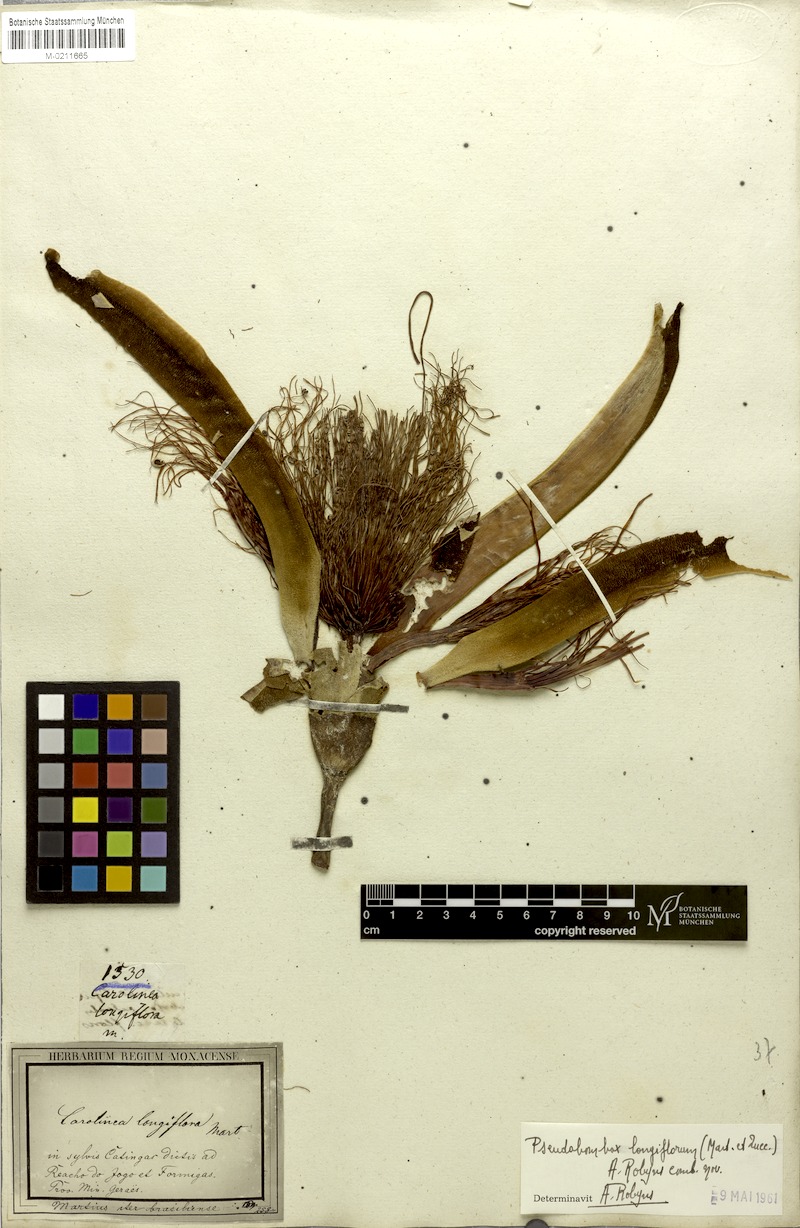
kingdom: Plantae
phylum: Tracheophyta
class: Magnoliopsida
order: Malvales
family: Malvaceae
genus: Pseudobombax
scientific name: Pseudobombax longiflorum
